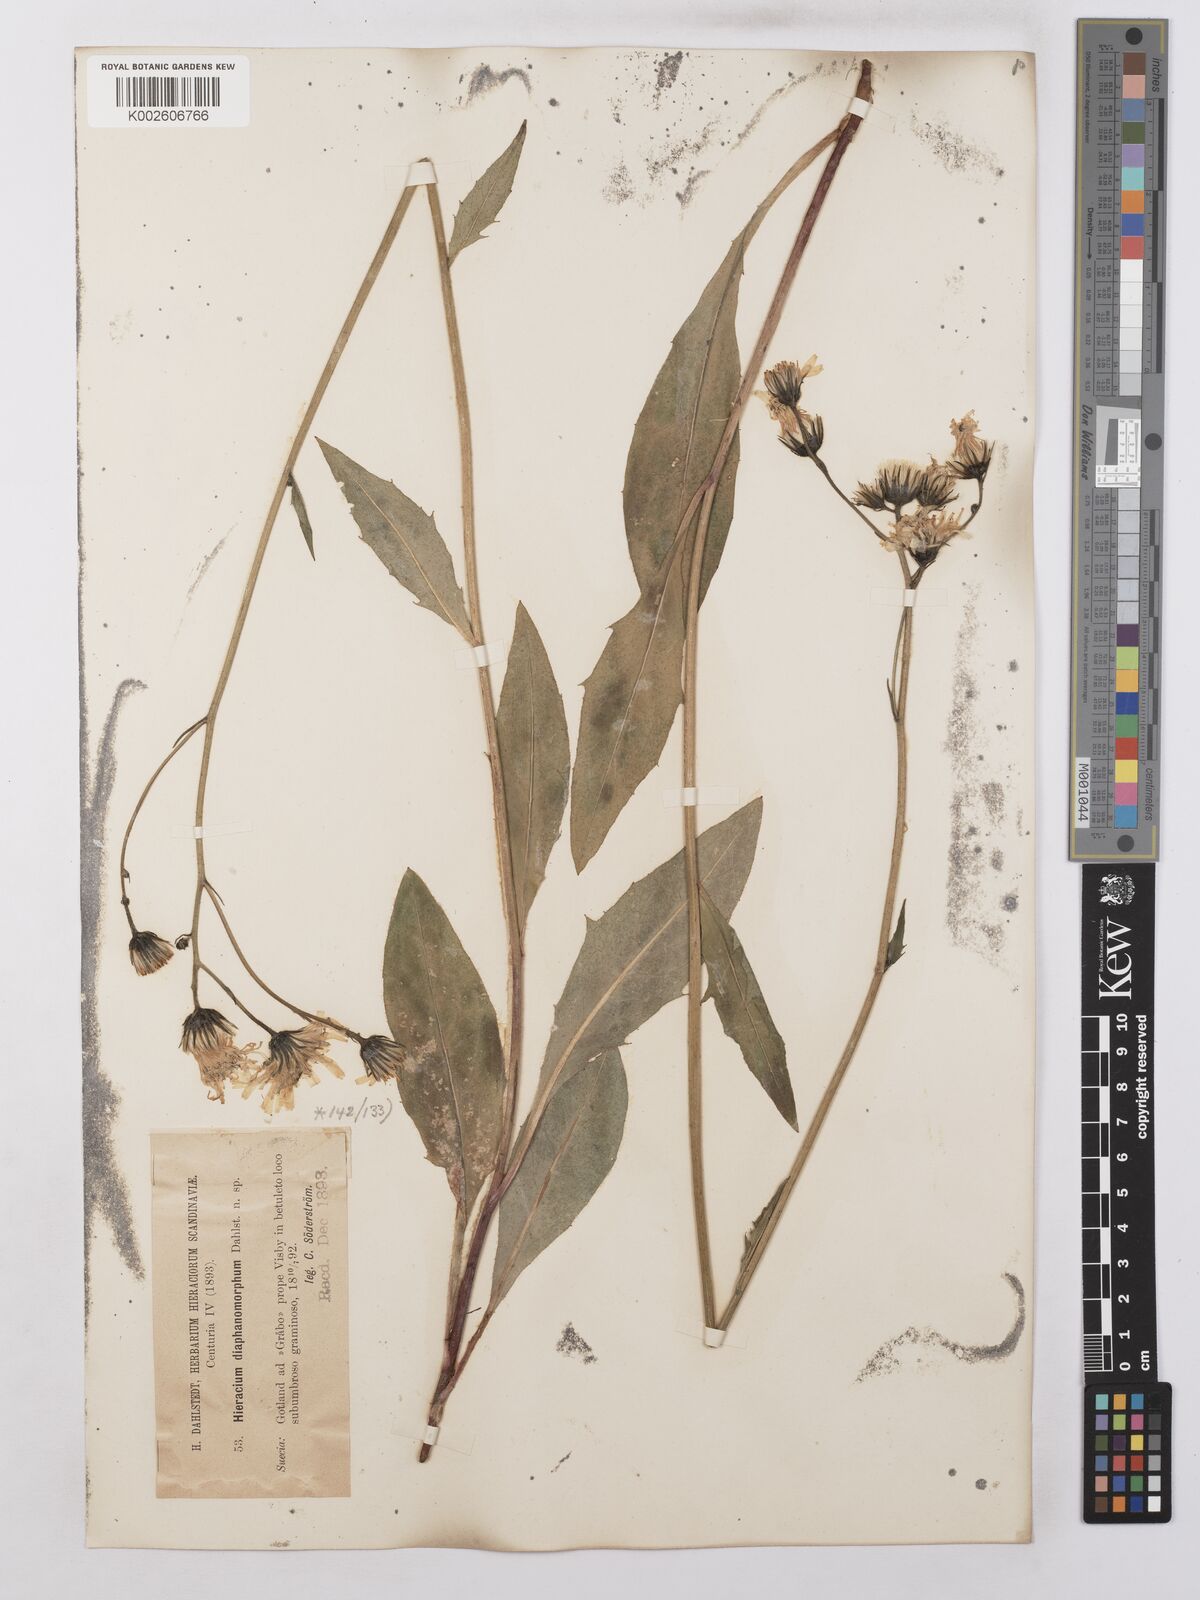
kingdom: Plantae
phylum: Tracheophyta
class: Magnoliopsida
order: Asterales
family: Asteraceae
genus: Hieracium
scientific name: Hieracium lachenalii
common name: Common hawkweed
